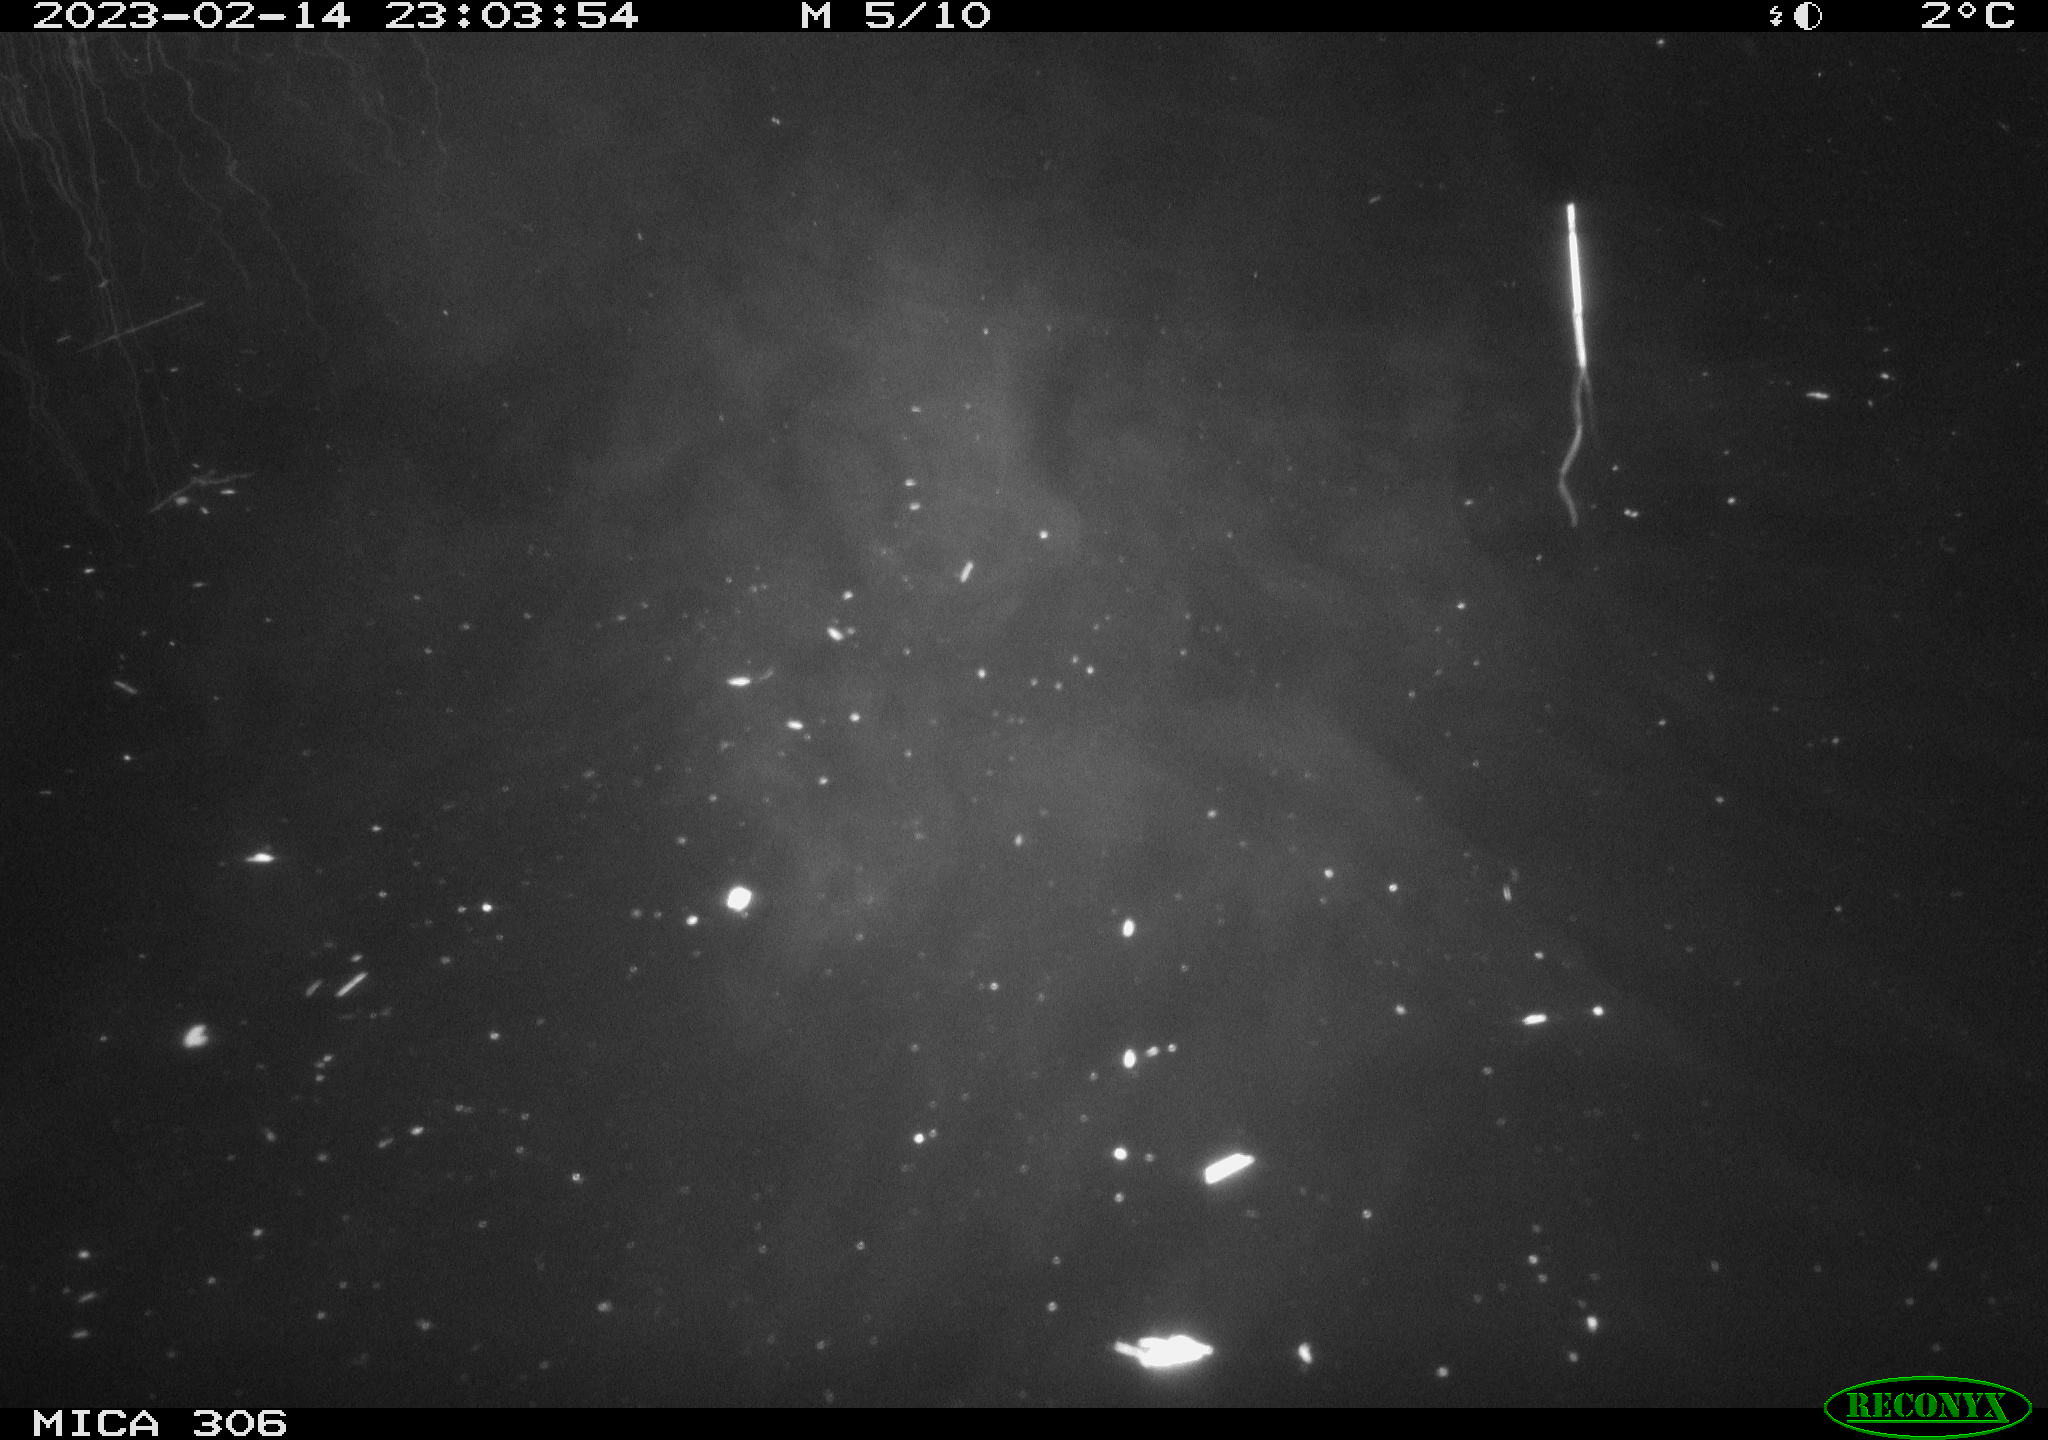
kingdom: Animalia
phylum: Chordata
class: Mammalia
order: Rodentia
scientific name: Rodentia
